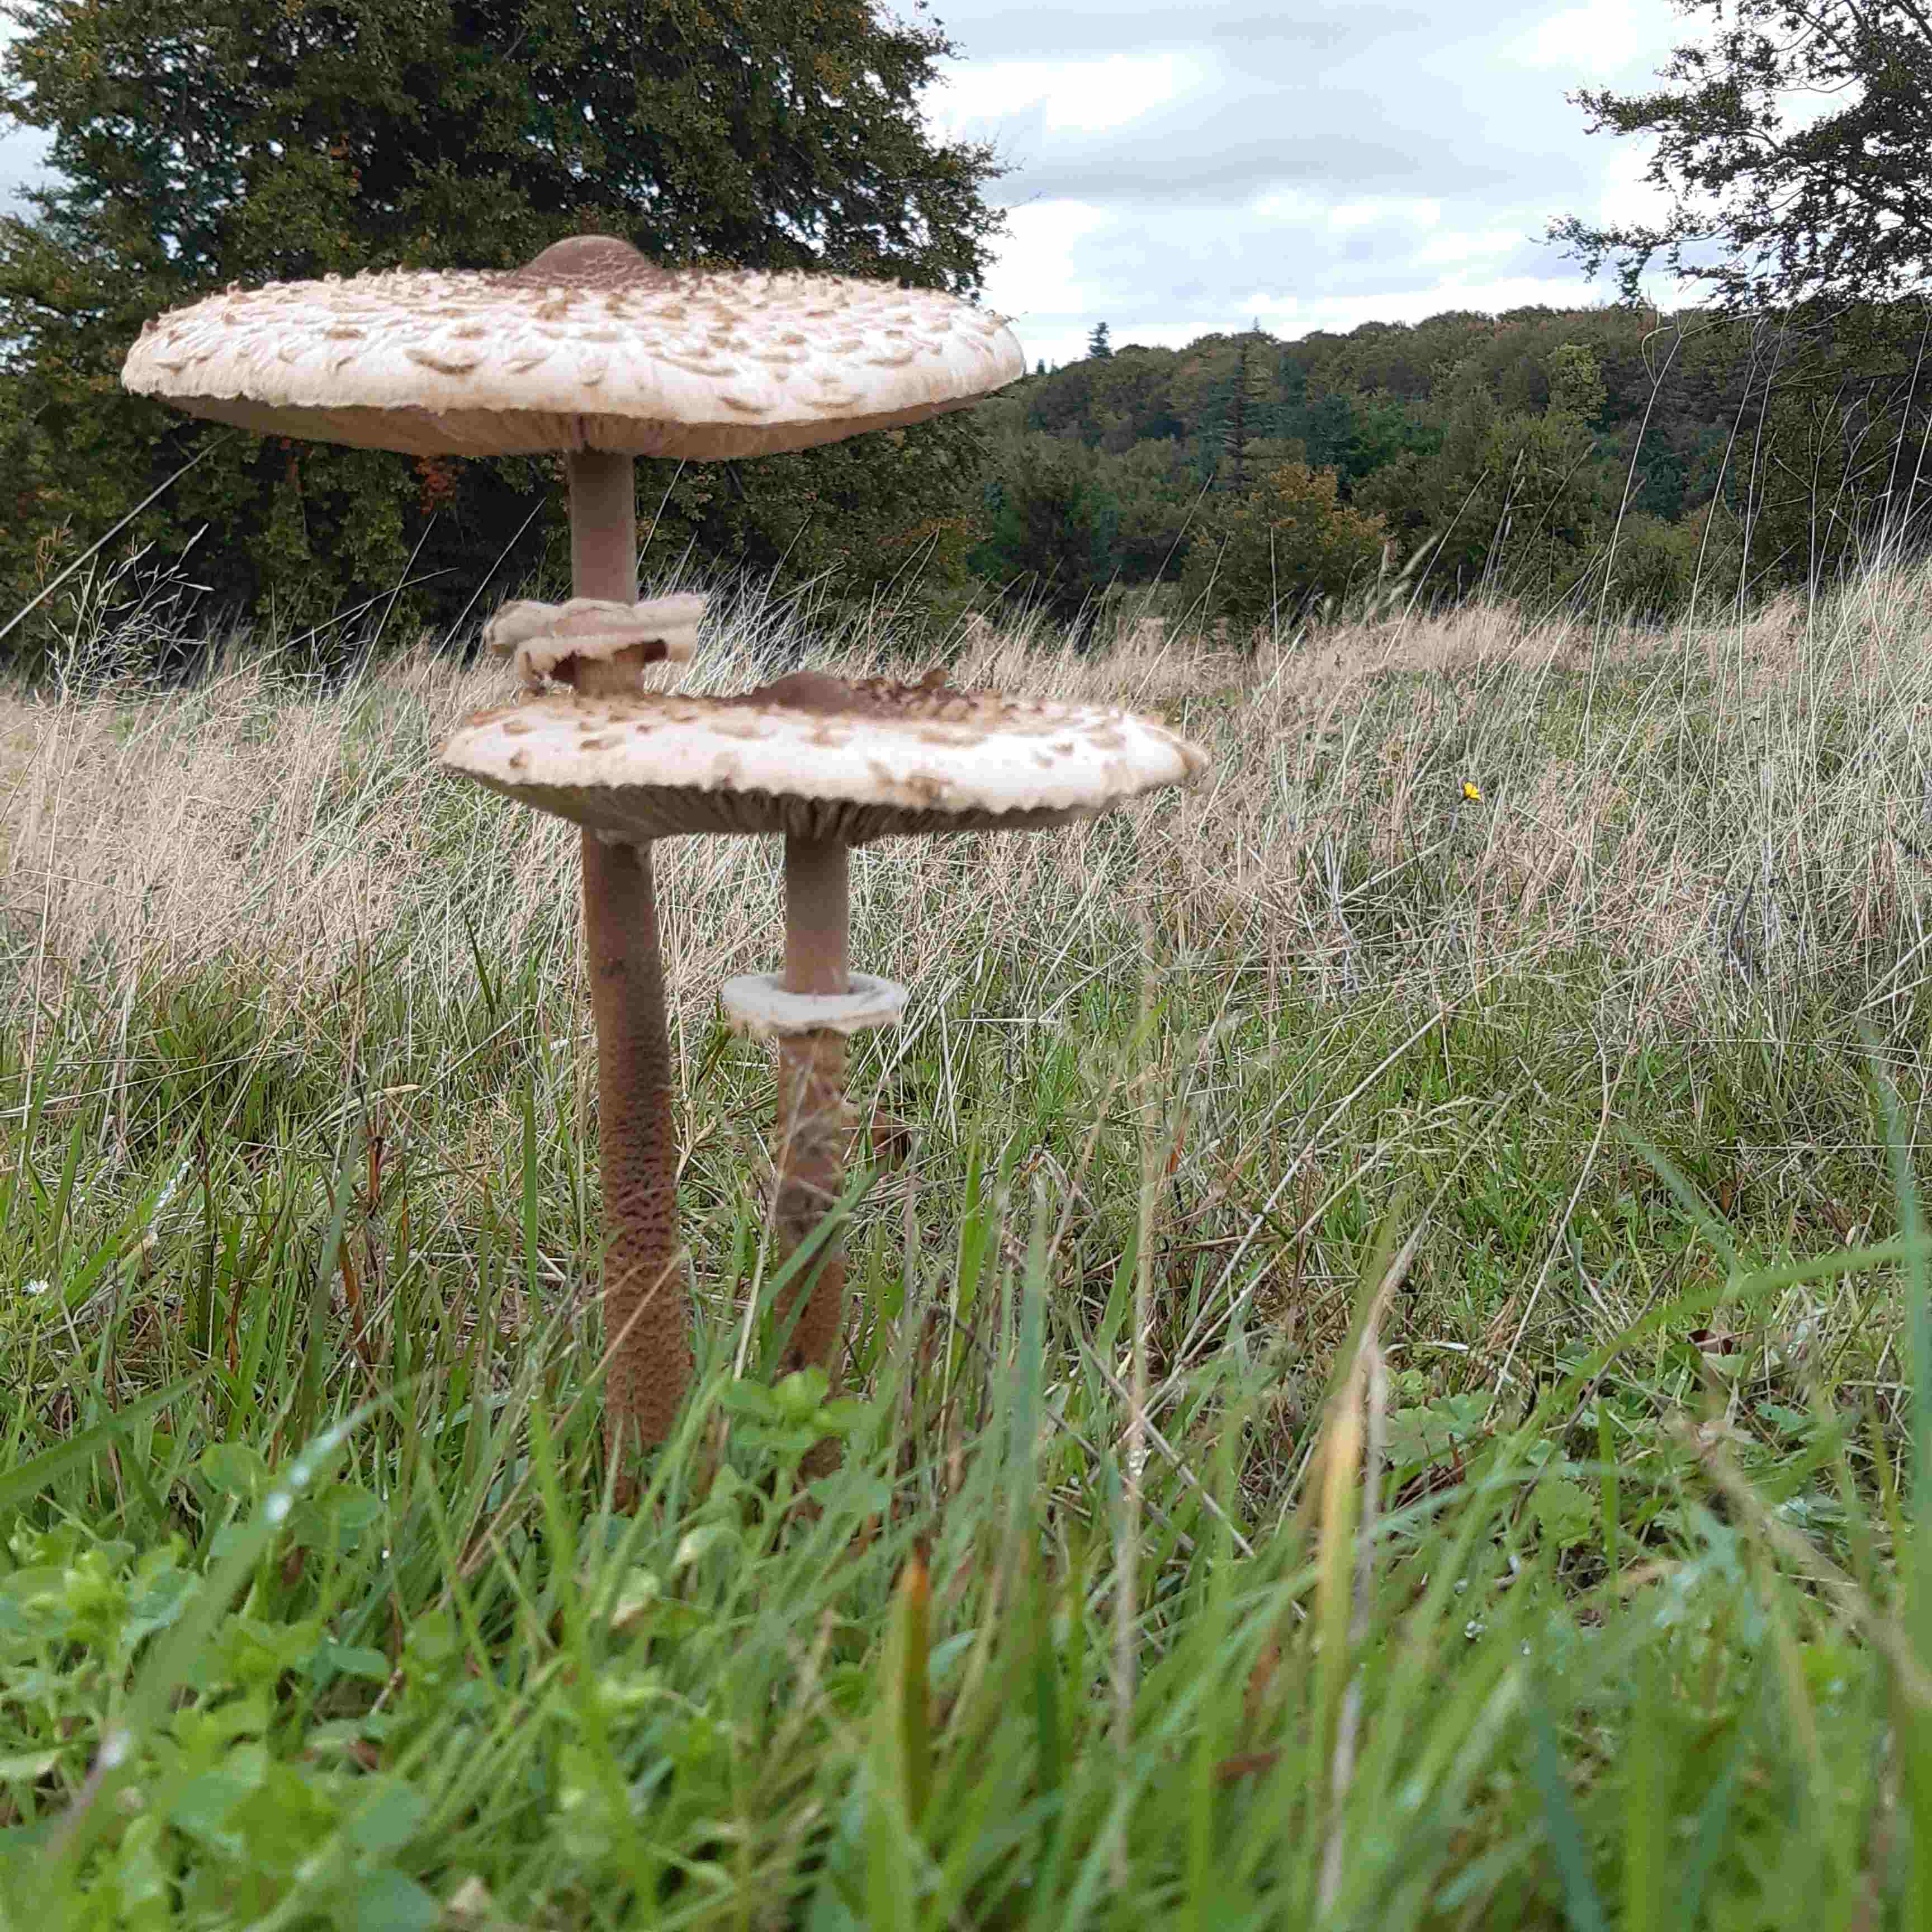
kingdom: Fungi
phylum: Basidiomycota
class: Agaricomycetes
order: Agaricales
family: Agaricaceae
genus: Macrolepiota
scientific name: Macrolepiota procera
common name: stor kæmpeparasolhat
